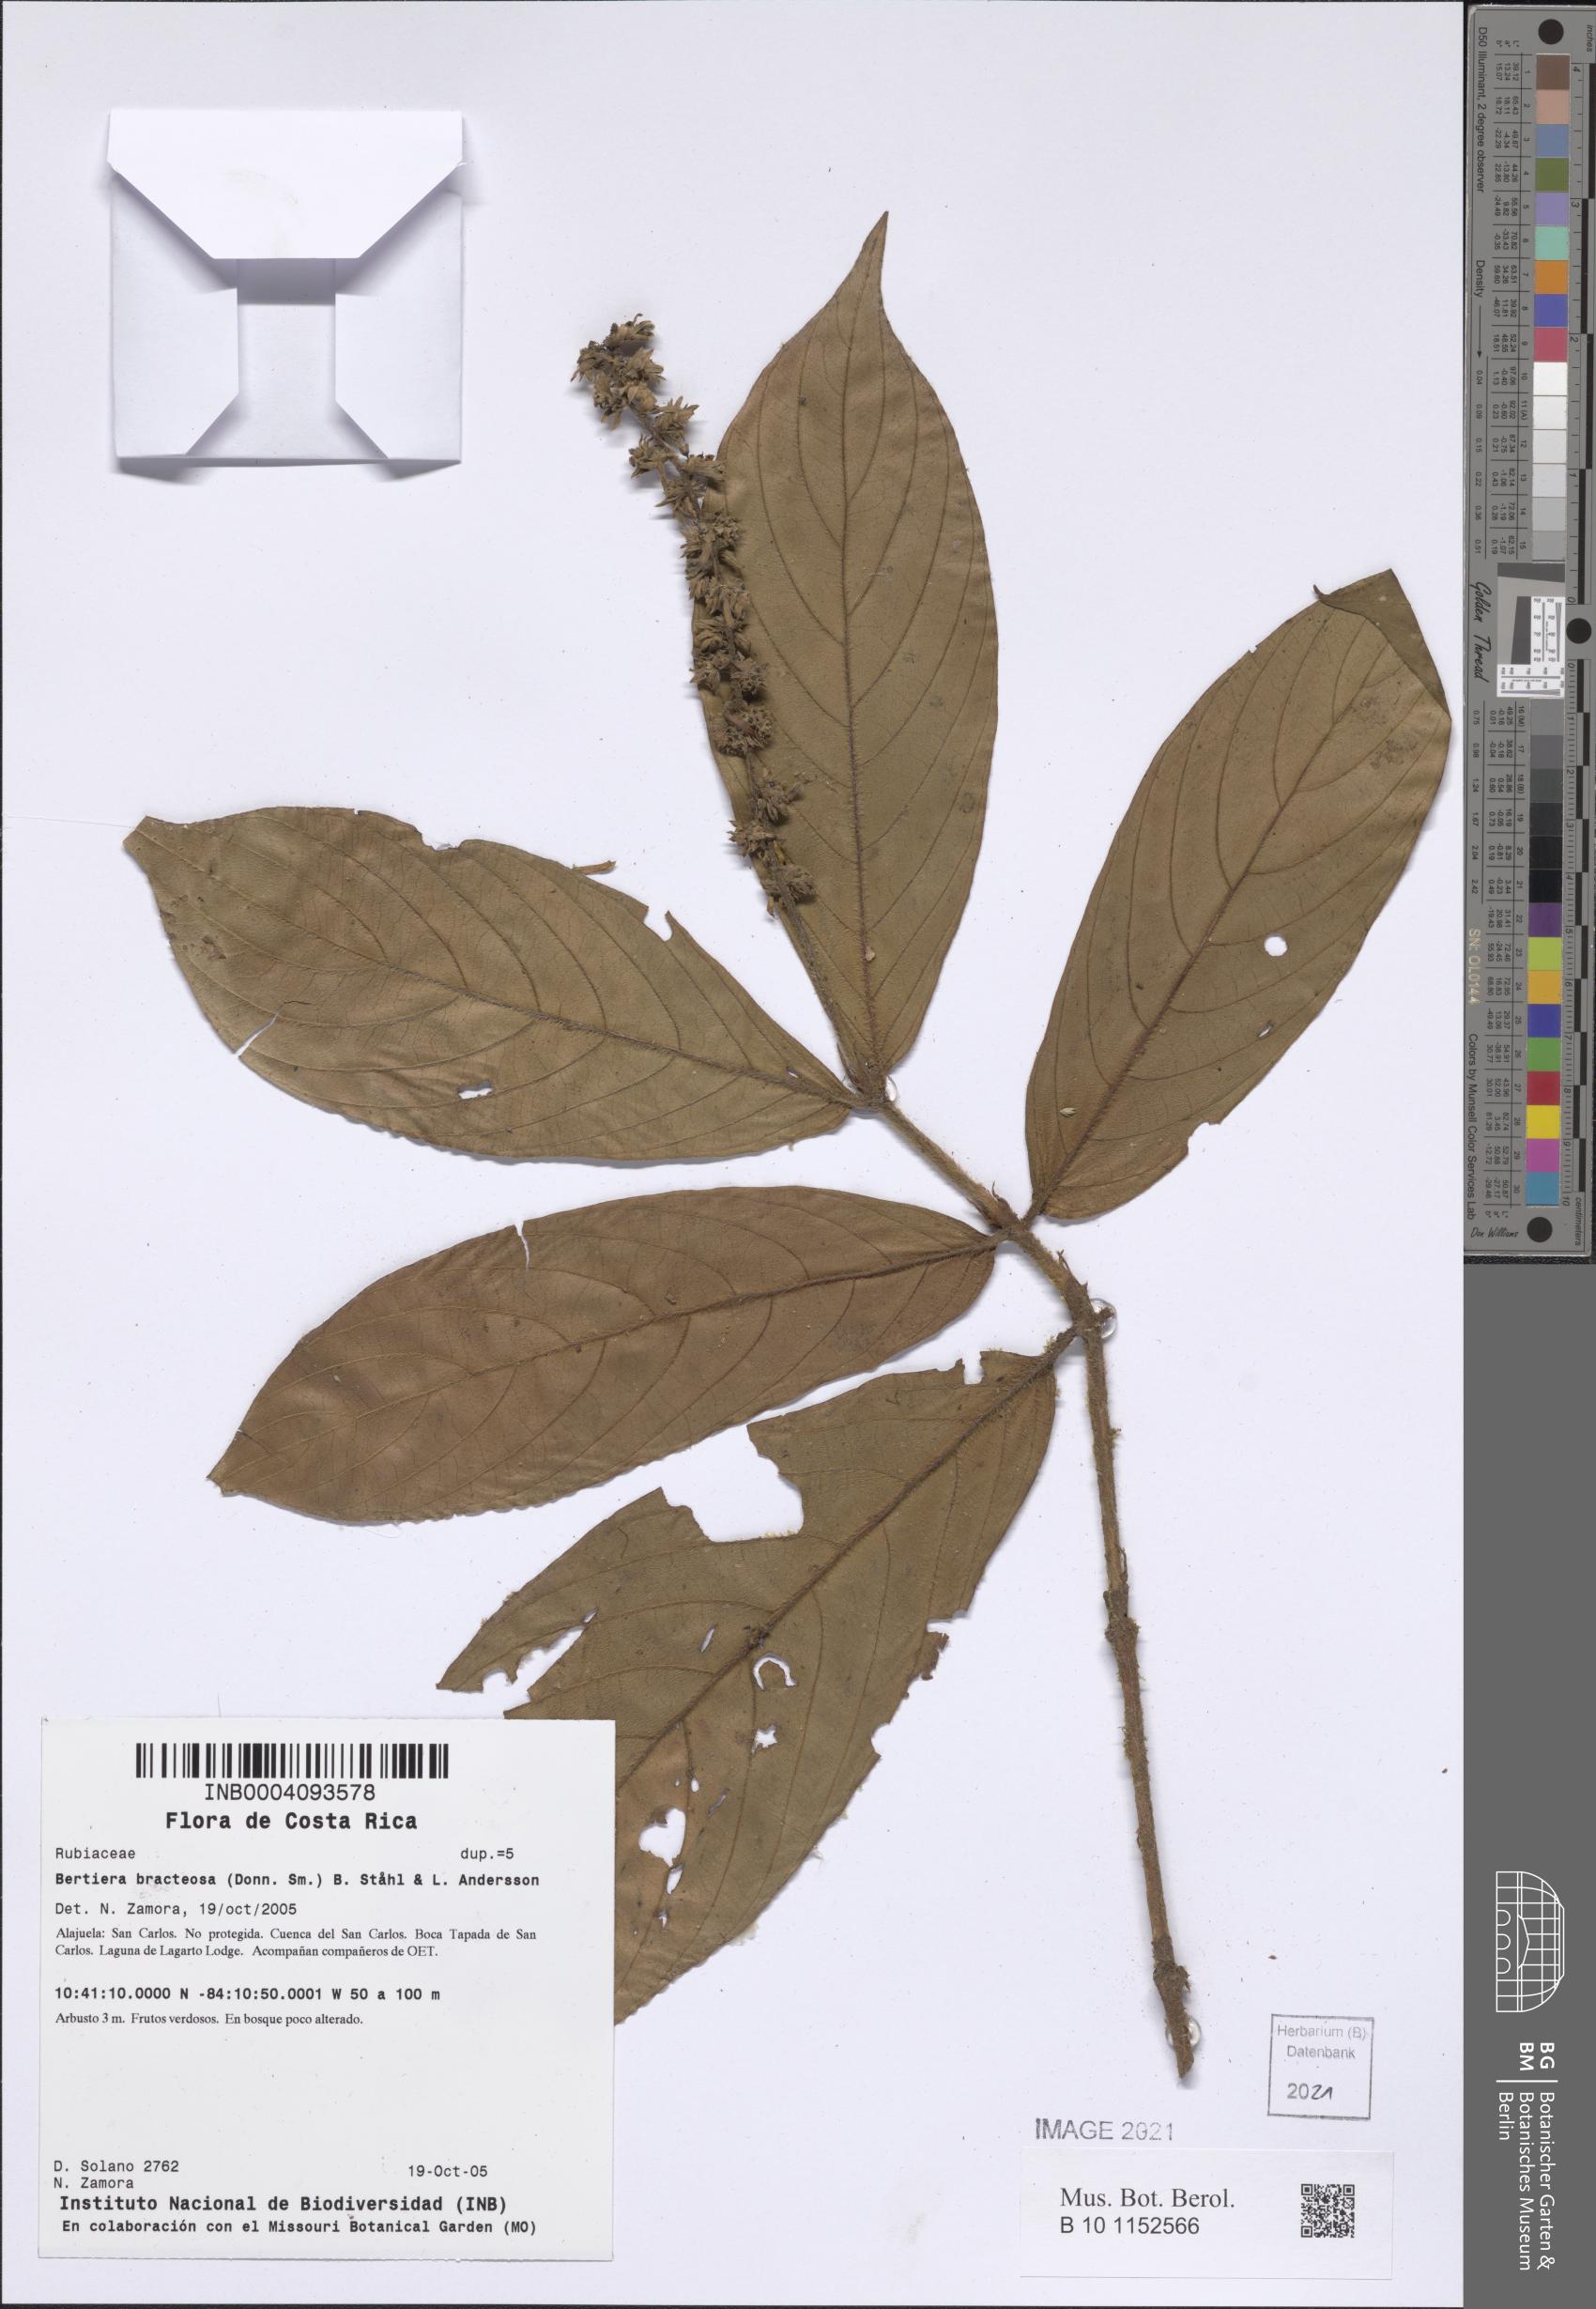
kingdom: Plantae
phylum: Tracheophyta
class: Magnoliopsida
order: Gentianales
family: Rubiaceae
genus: Bertiera
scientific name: Bertiera bracteosa
